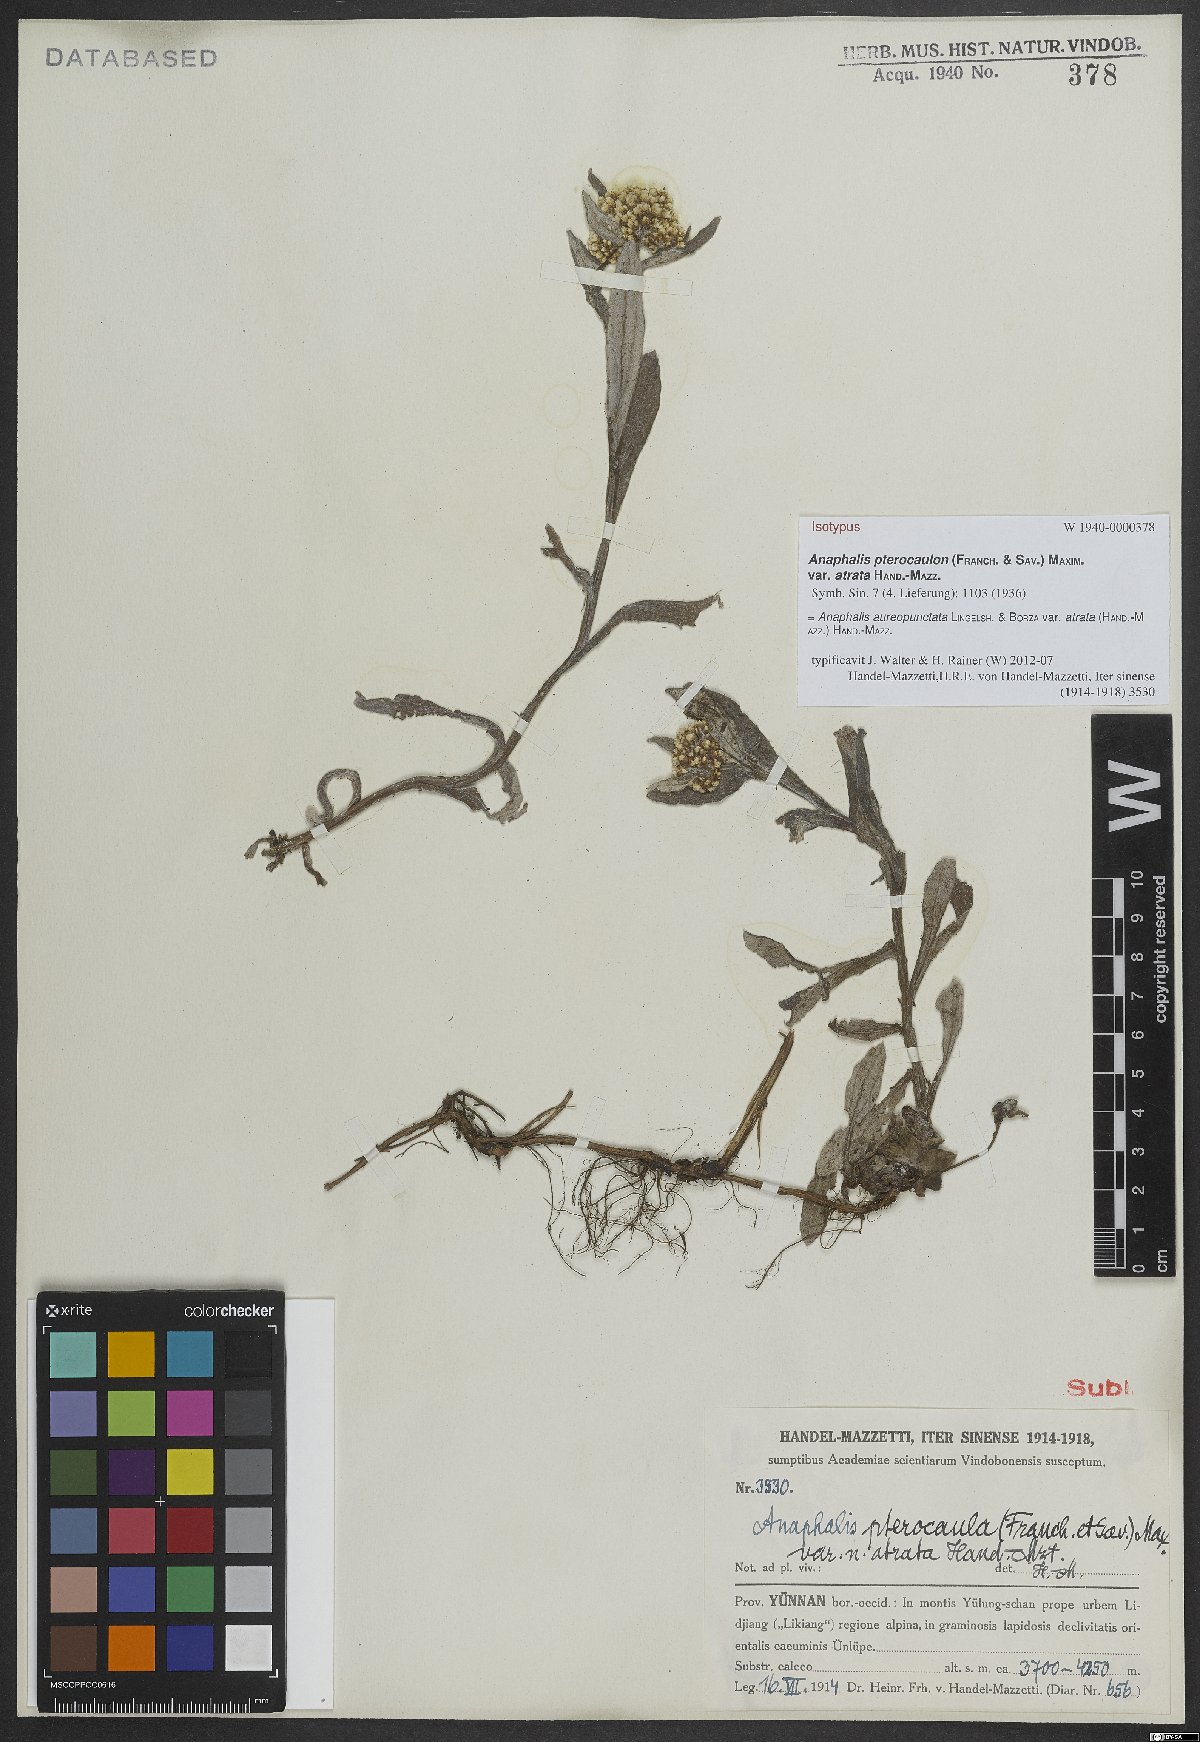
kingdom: Plantae
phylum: Tracheophyta
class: Magnoliopsida
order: Asterales
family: Asteraceae
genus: Anaphalis
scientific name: Anaphalis aureopunctata
